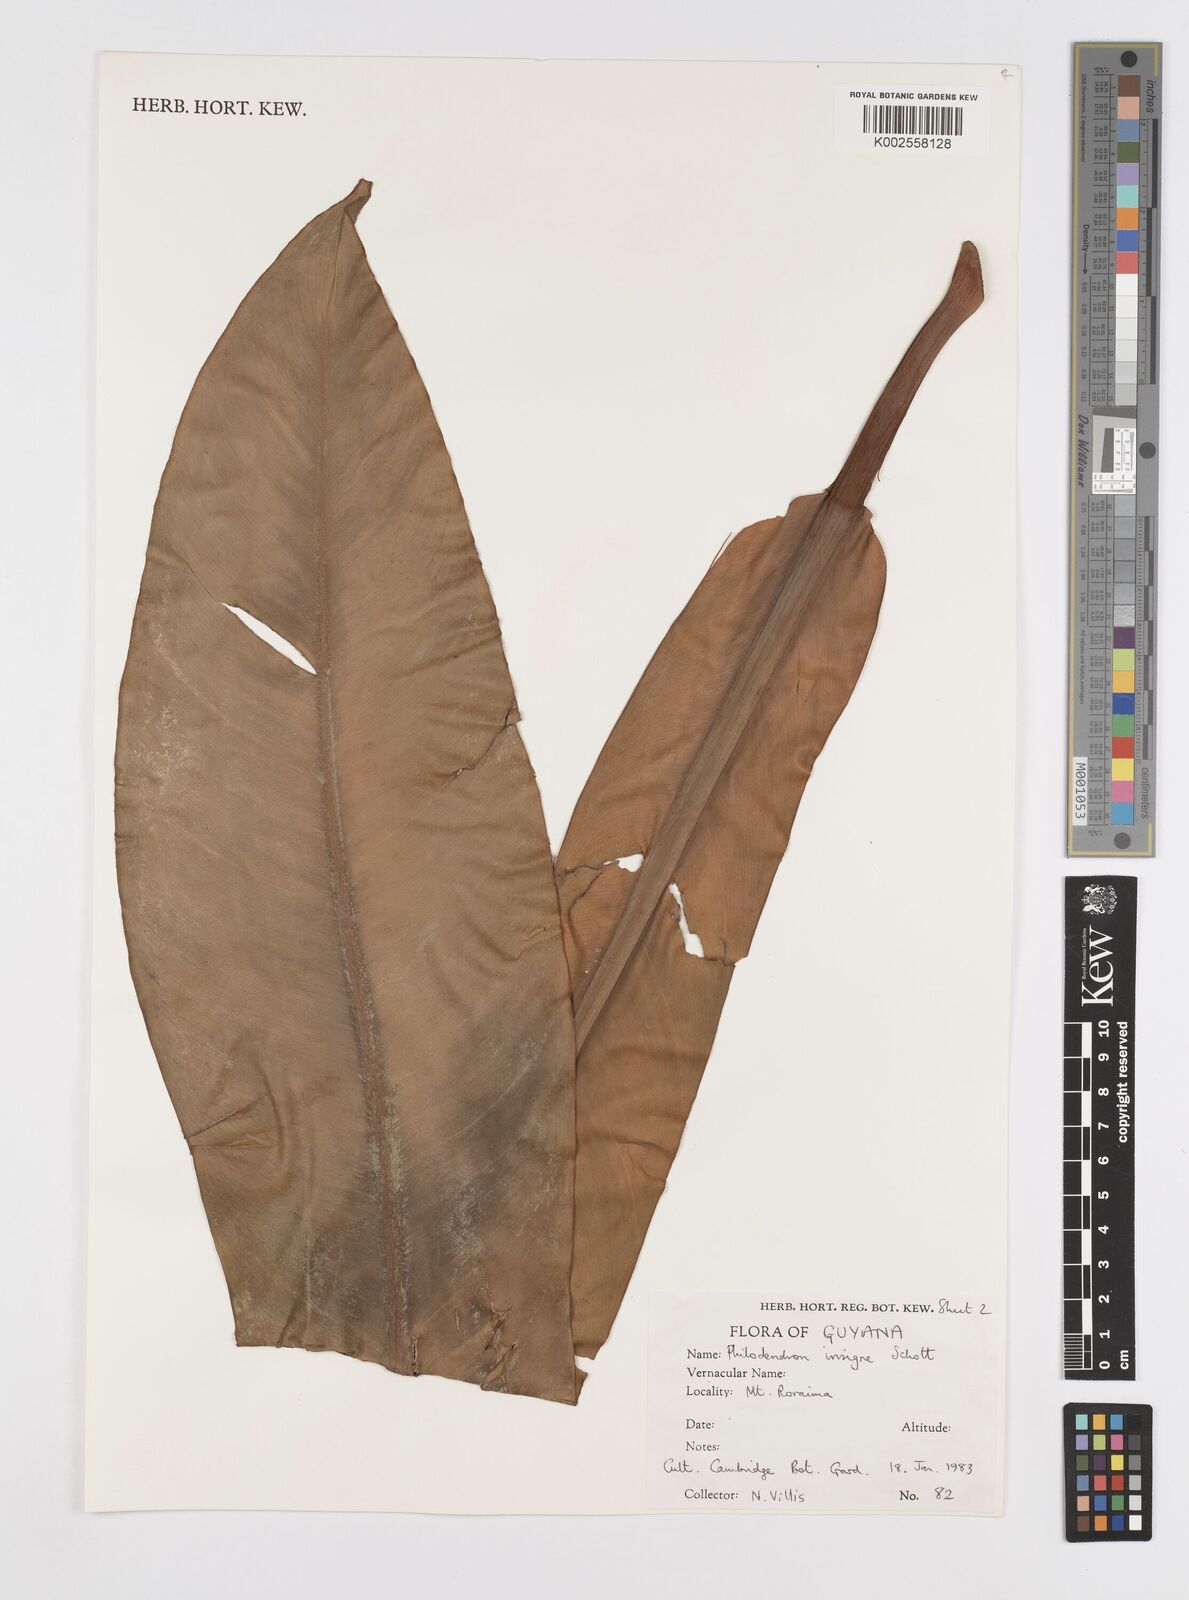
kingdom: Plantae
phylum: Tracheophyta
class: Liliopsida
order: Alismatales
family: Araceae
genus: Philodendron
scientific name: Philodendron insigne
